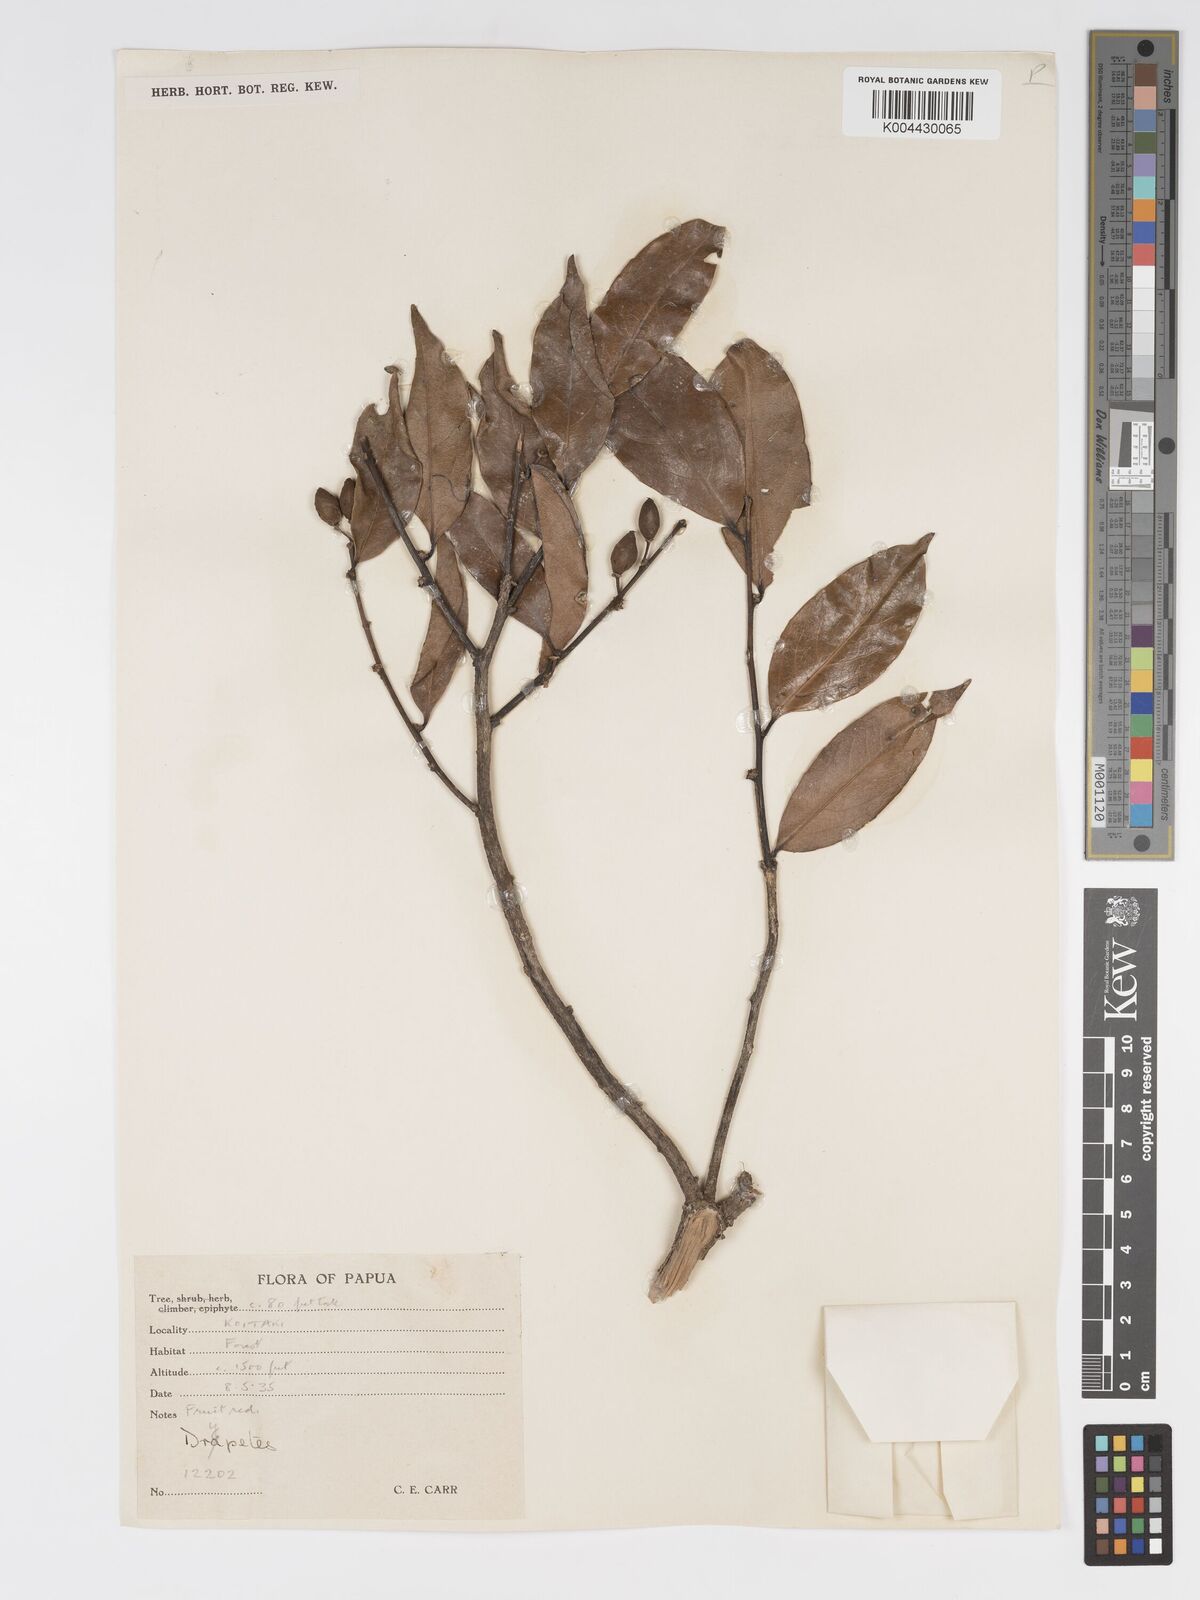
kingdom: Plantae
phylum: Tracheophyta
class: Magnoliopsida
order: Malpighiales
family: Putranjivaceae
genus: Drypetes
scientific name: Drypetes neglecta
